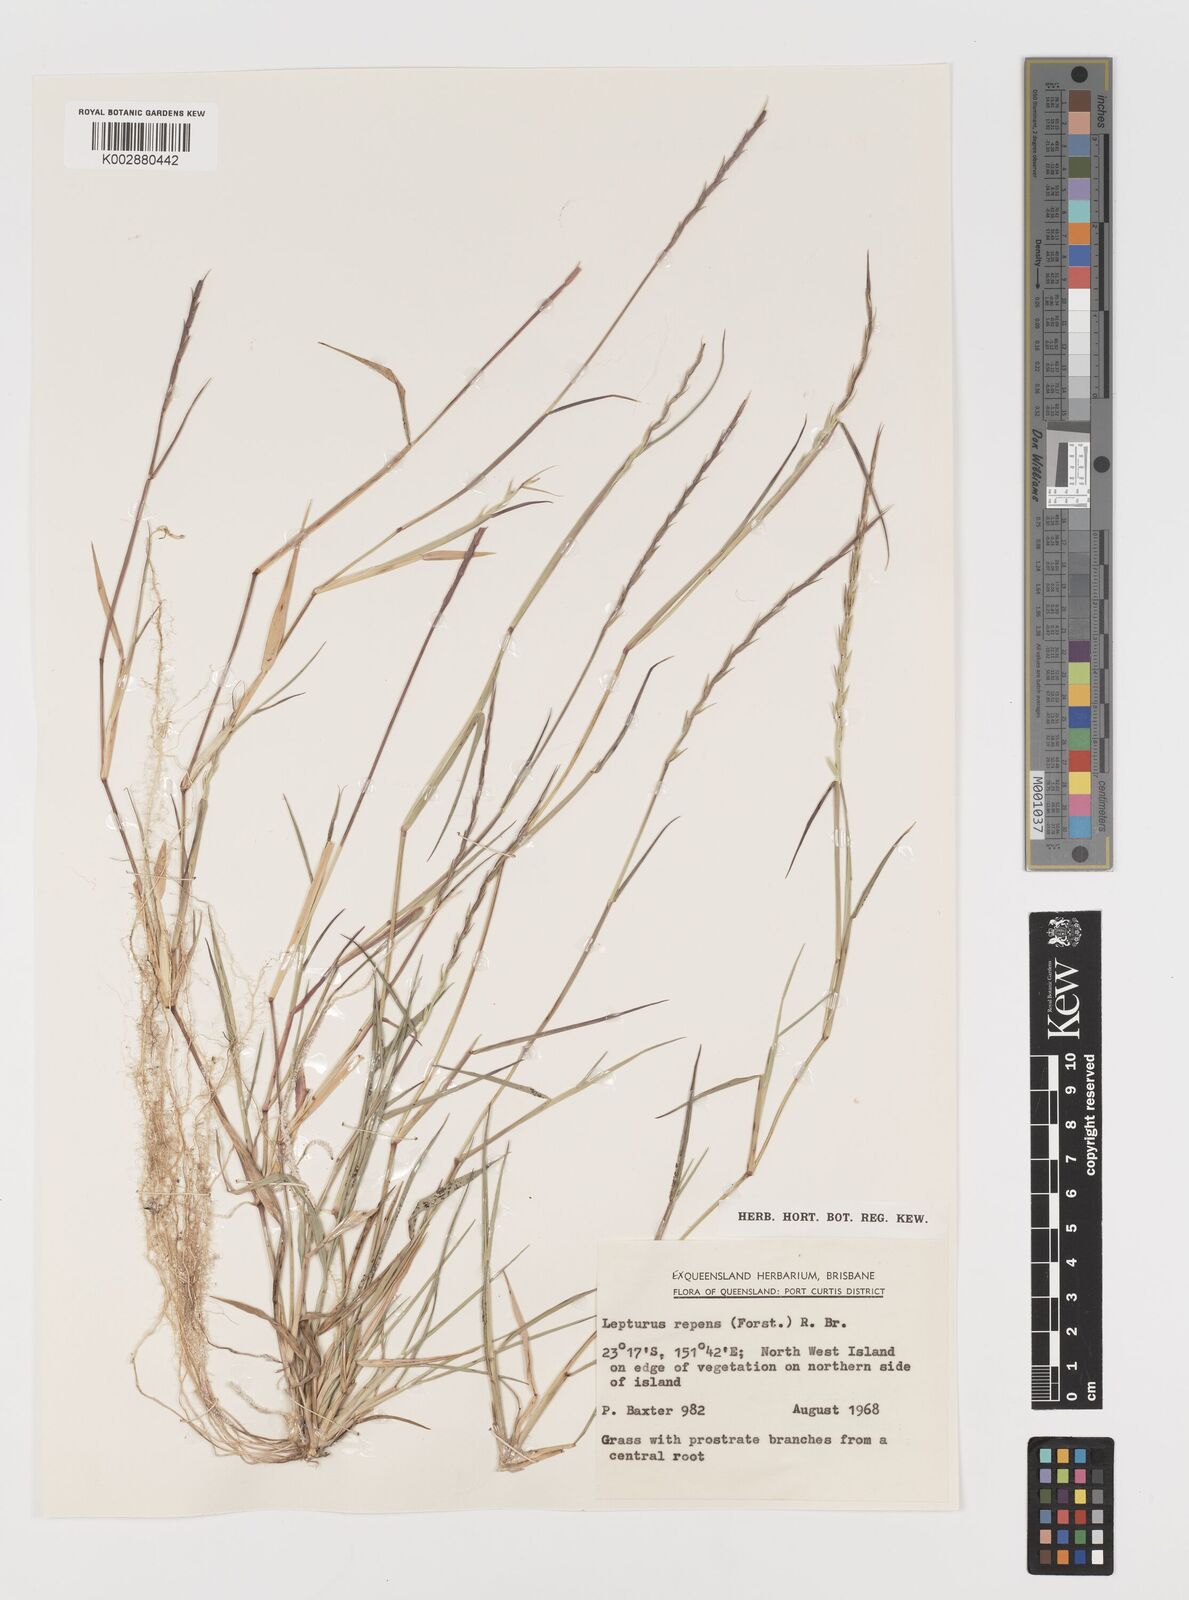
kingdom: Plantae
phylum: Tracheophyta
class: Liliopsida
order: Poales
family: Poaceae
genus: Lepturus
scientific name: Lepturus repens
